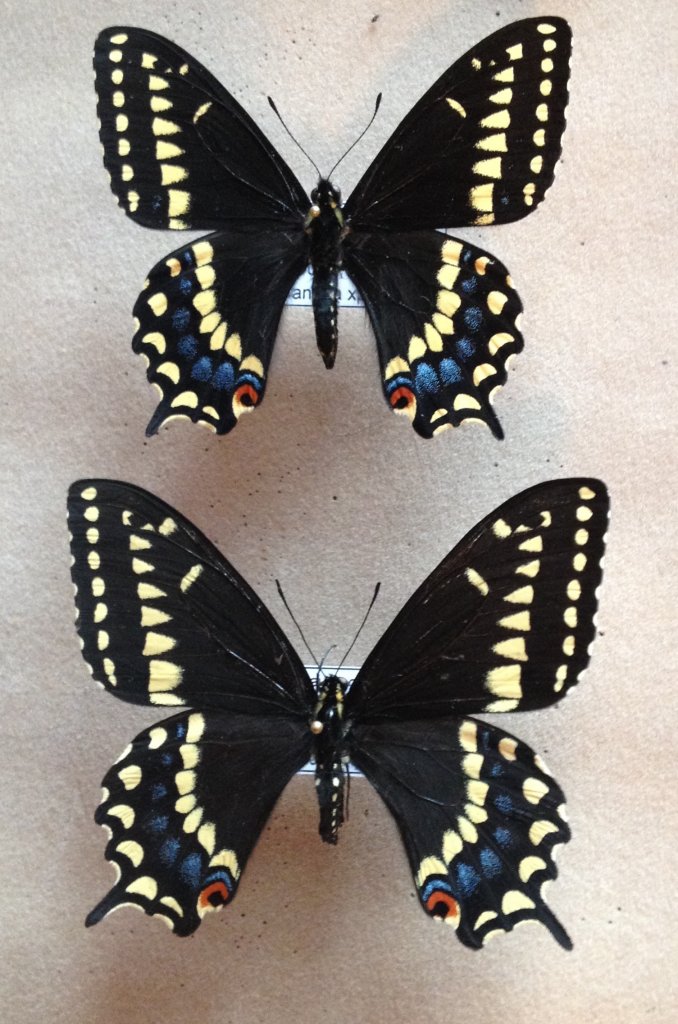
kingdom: Animalia
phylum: Arthropoda
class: Insecta
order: Lepidoptera
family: Papilionidae
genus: Papilio
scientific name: Papilio brevicauda
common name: Short-tailed Swallowtail
